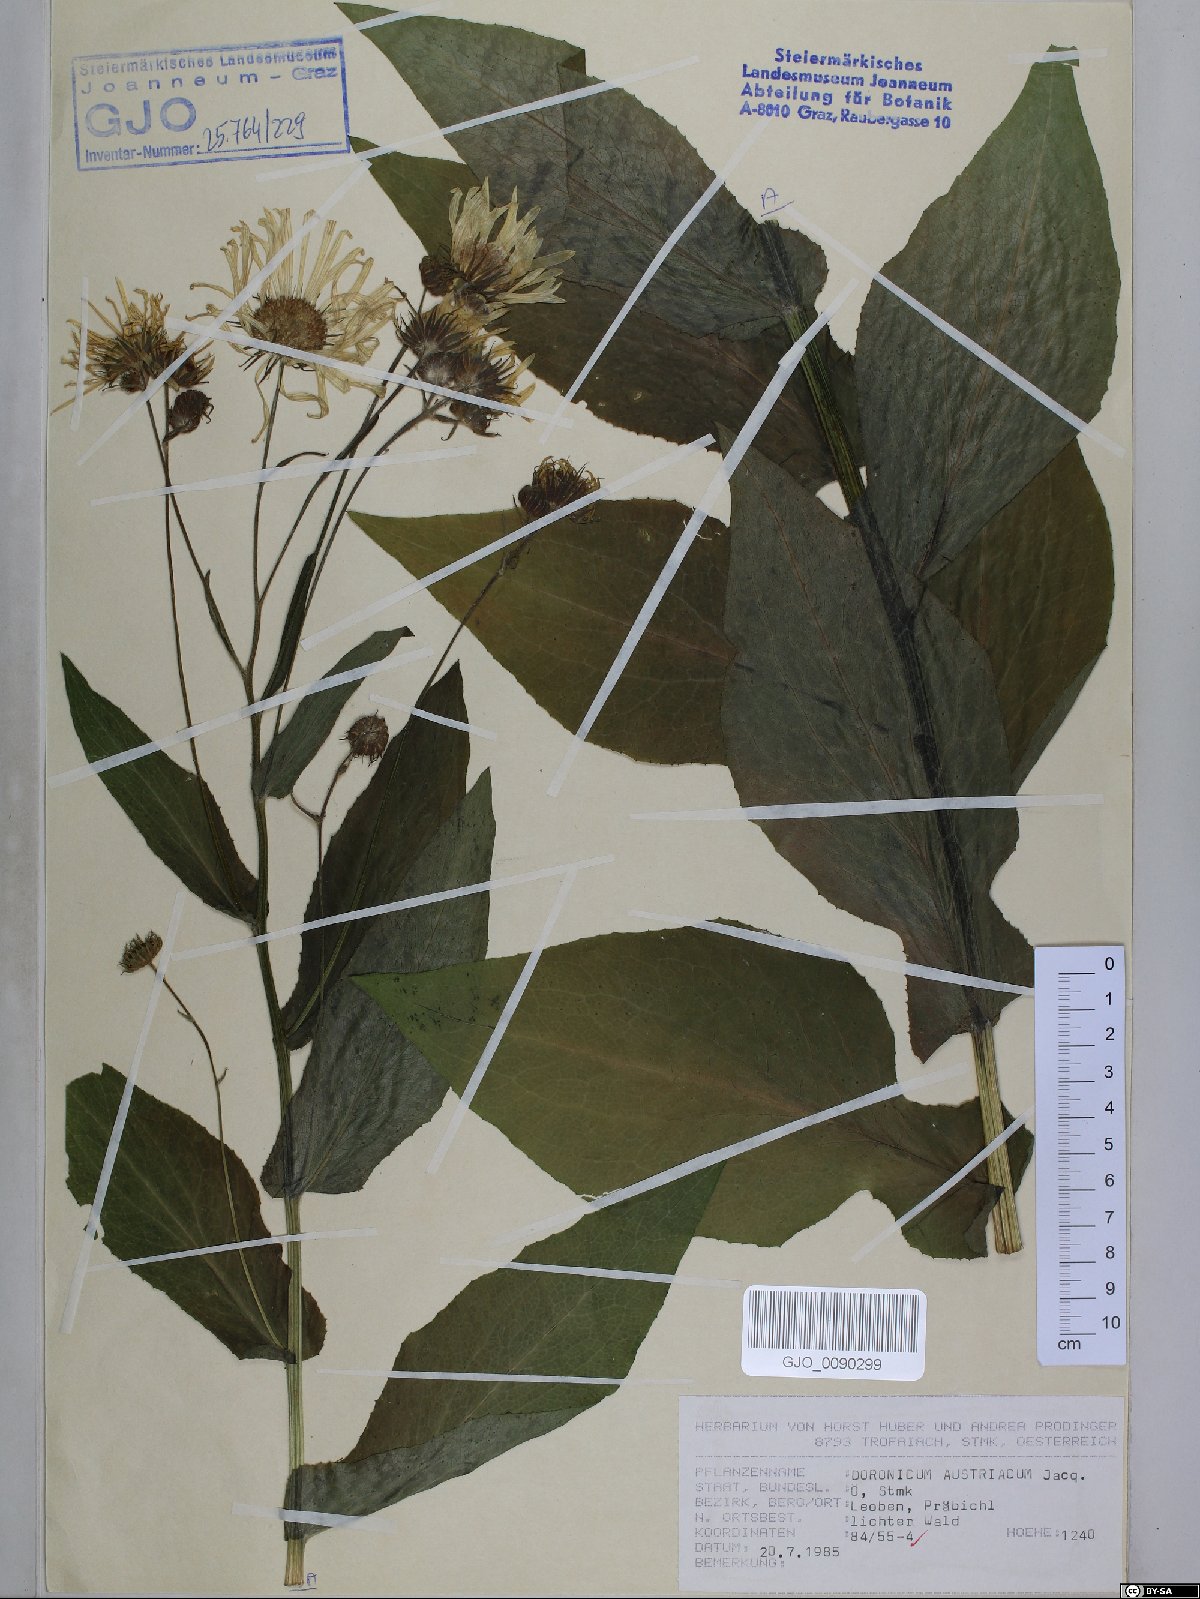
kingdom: Plantae
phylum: Tracheophyta
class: Magnoliopsida
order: Asterales
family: Asteraceae
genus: Doronicum
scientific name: Doronicum austriacum
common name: Austrian leopard's-bane
